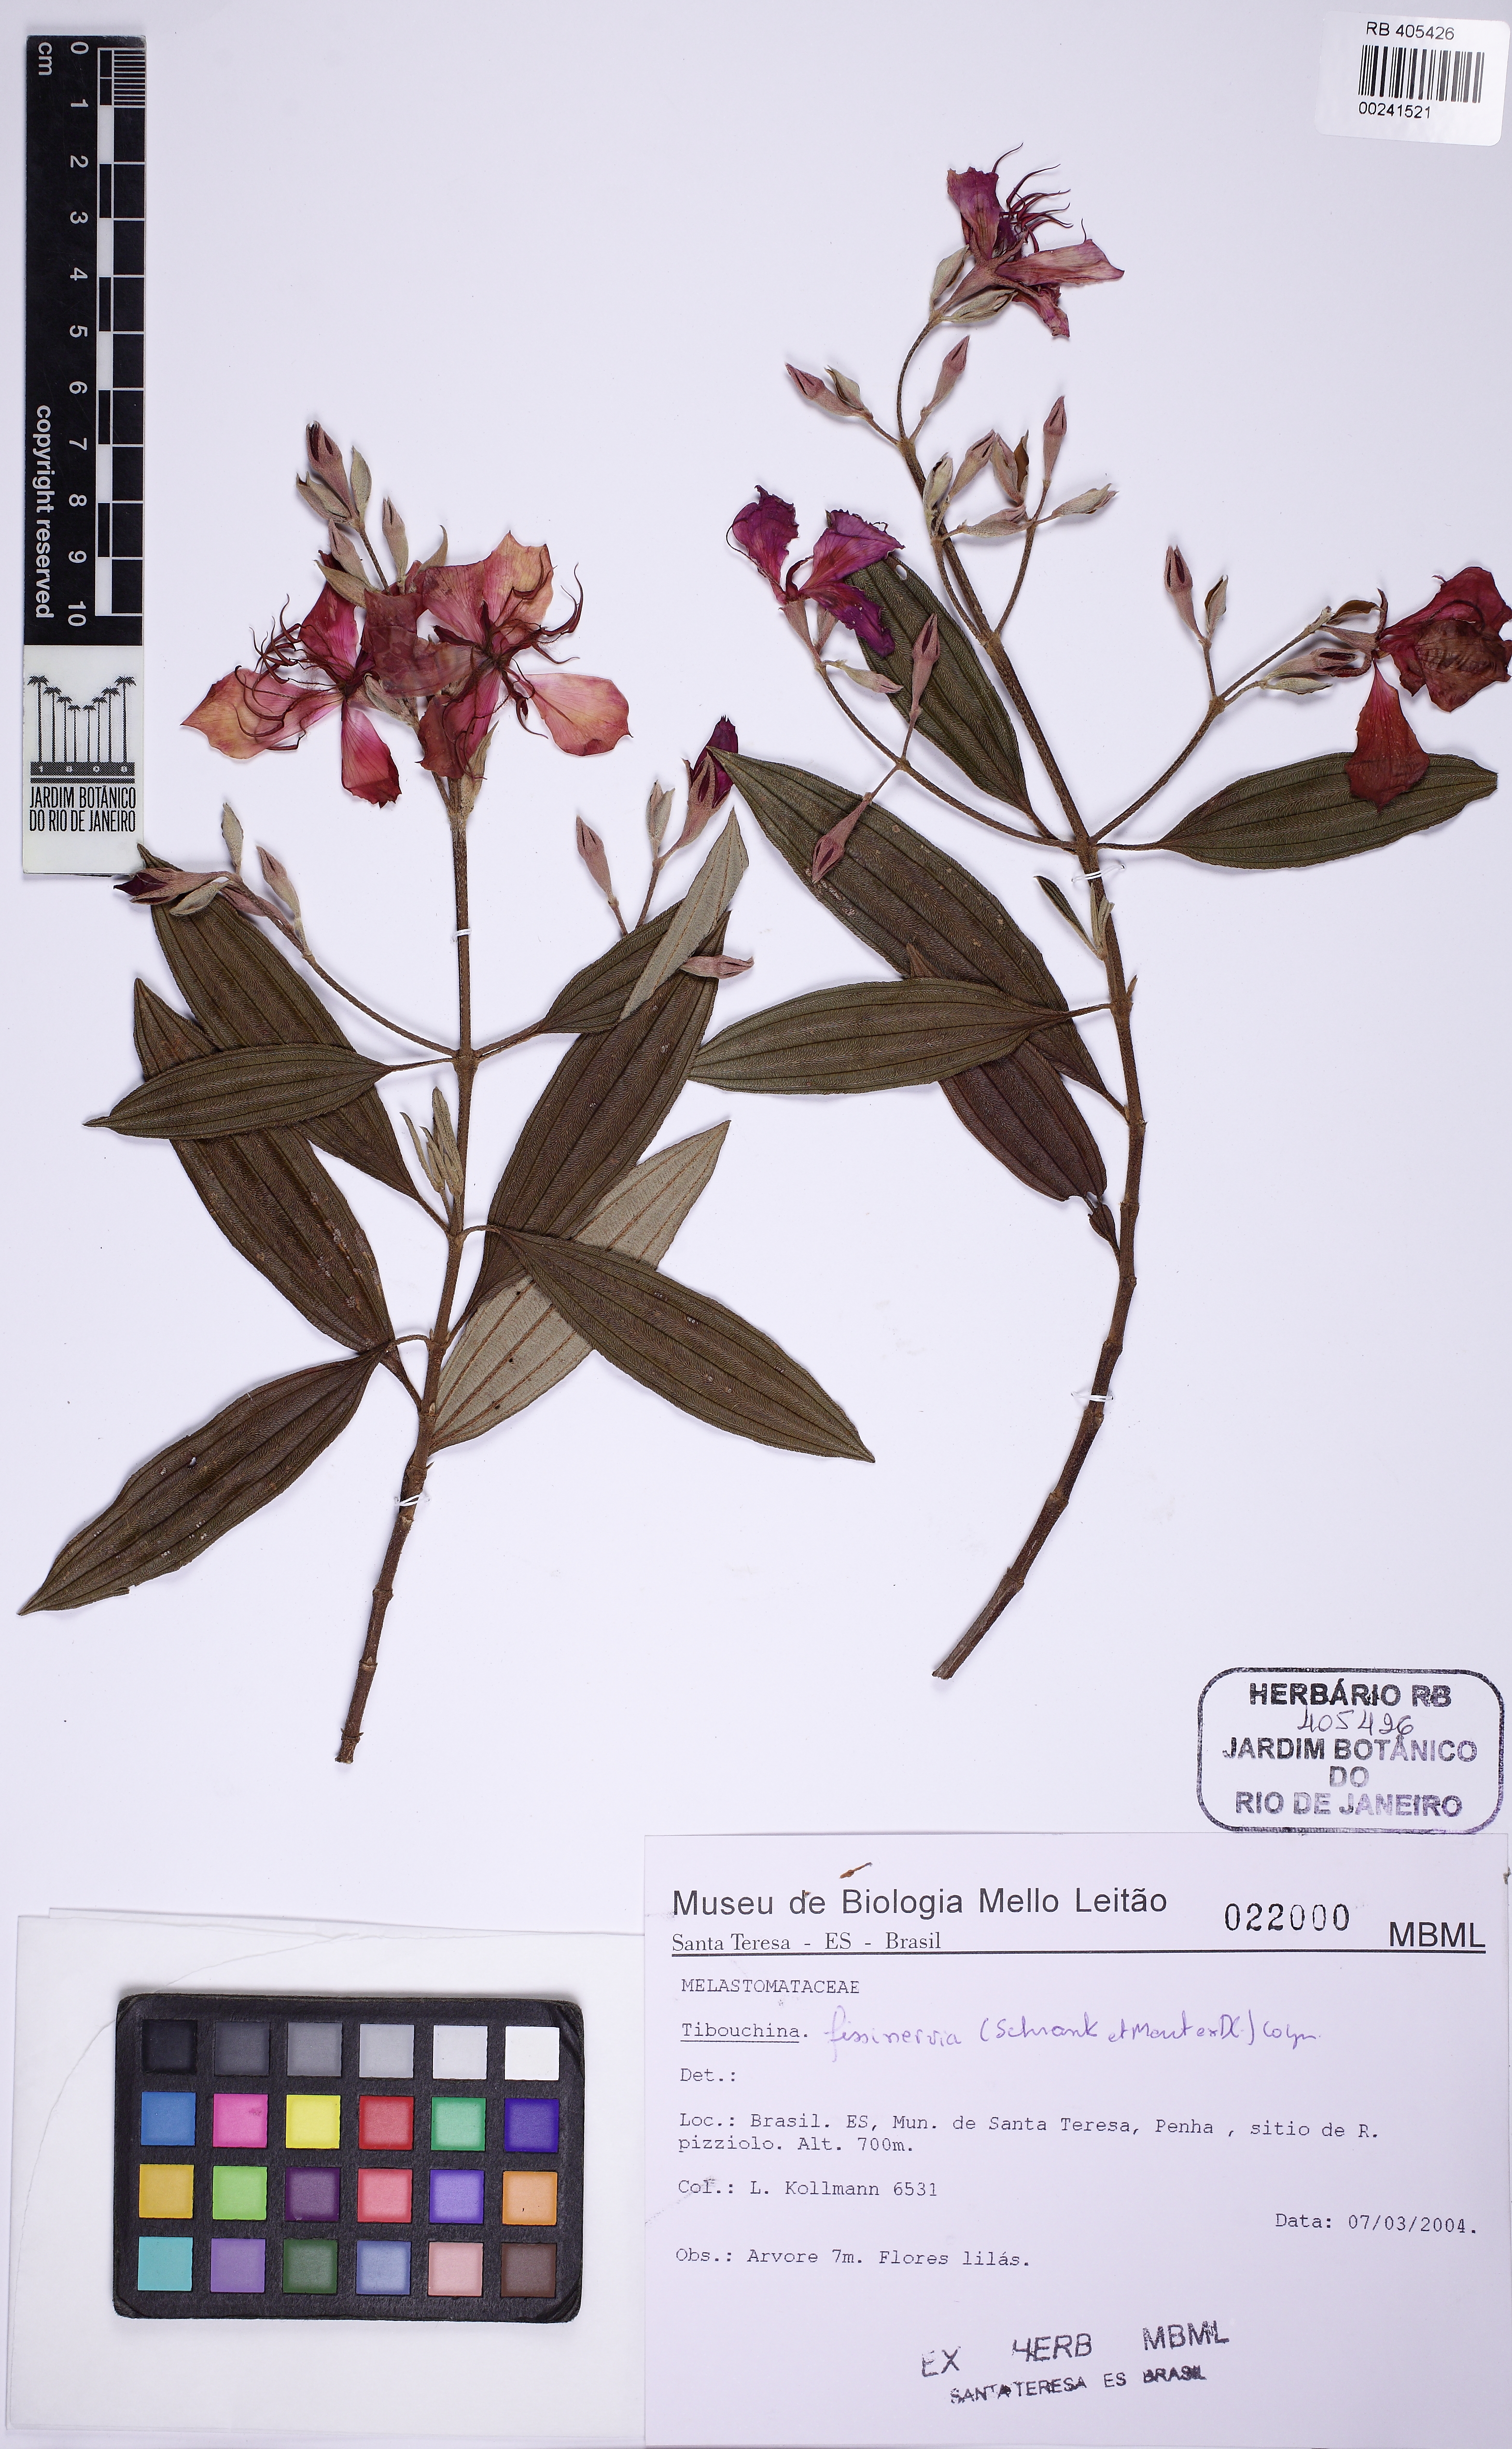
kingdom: Plantae
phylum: Tracheophyta
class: Magnoliopsida
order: Myrtales
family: Melastomataceae
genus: Pleroma
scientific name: Pleroma fissinervium
